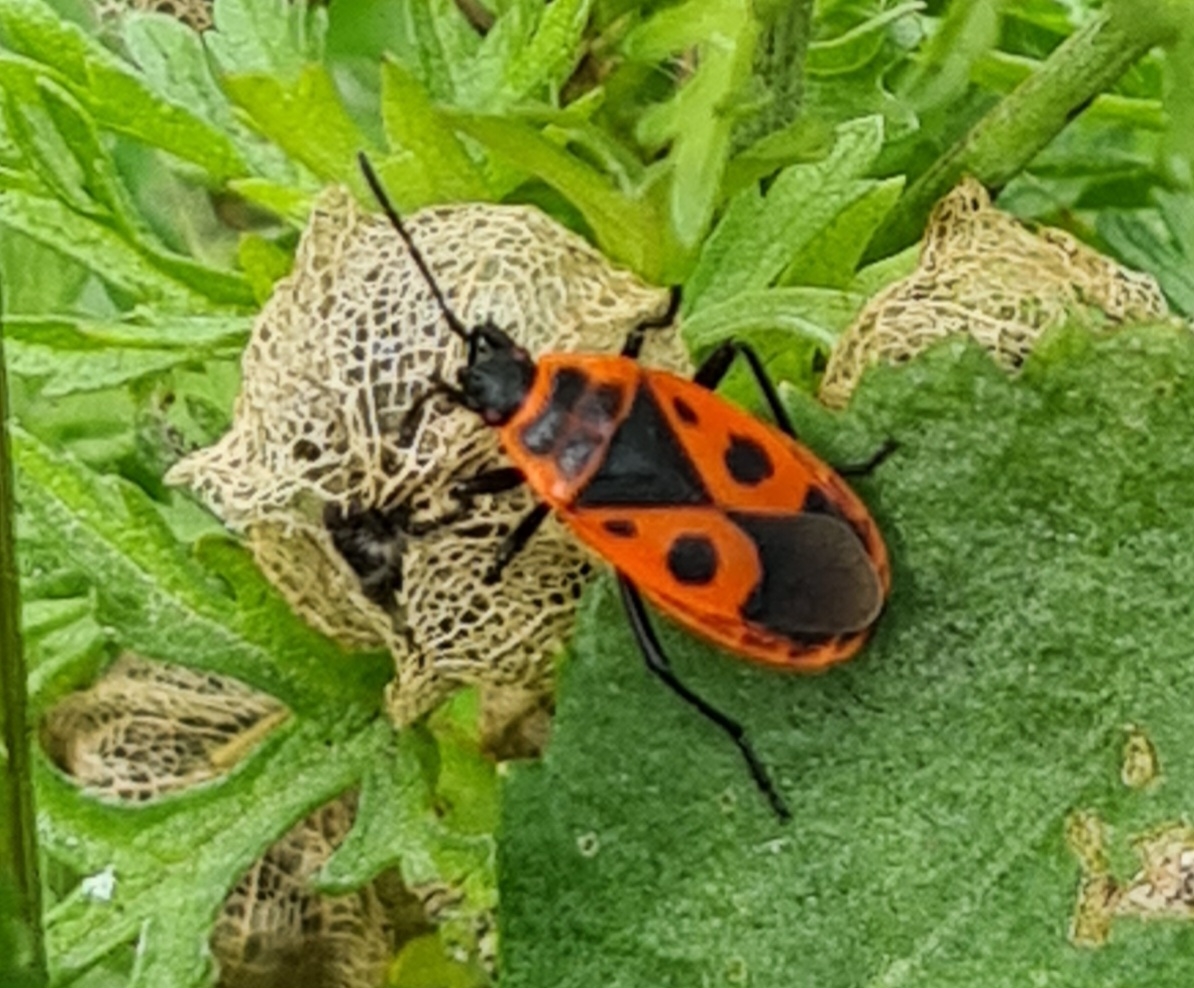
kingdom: Animalia
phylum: Arthropoda
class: Insecta
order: Hemiptera
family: Pyrrhocoridae
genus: Pyrrhocoris
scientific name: Pyrrhocoris apterus
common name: Ildtæge
